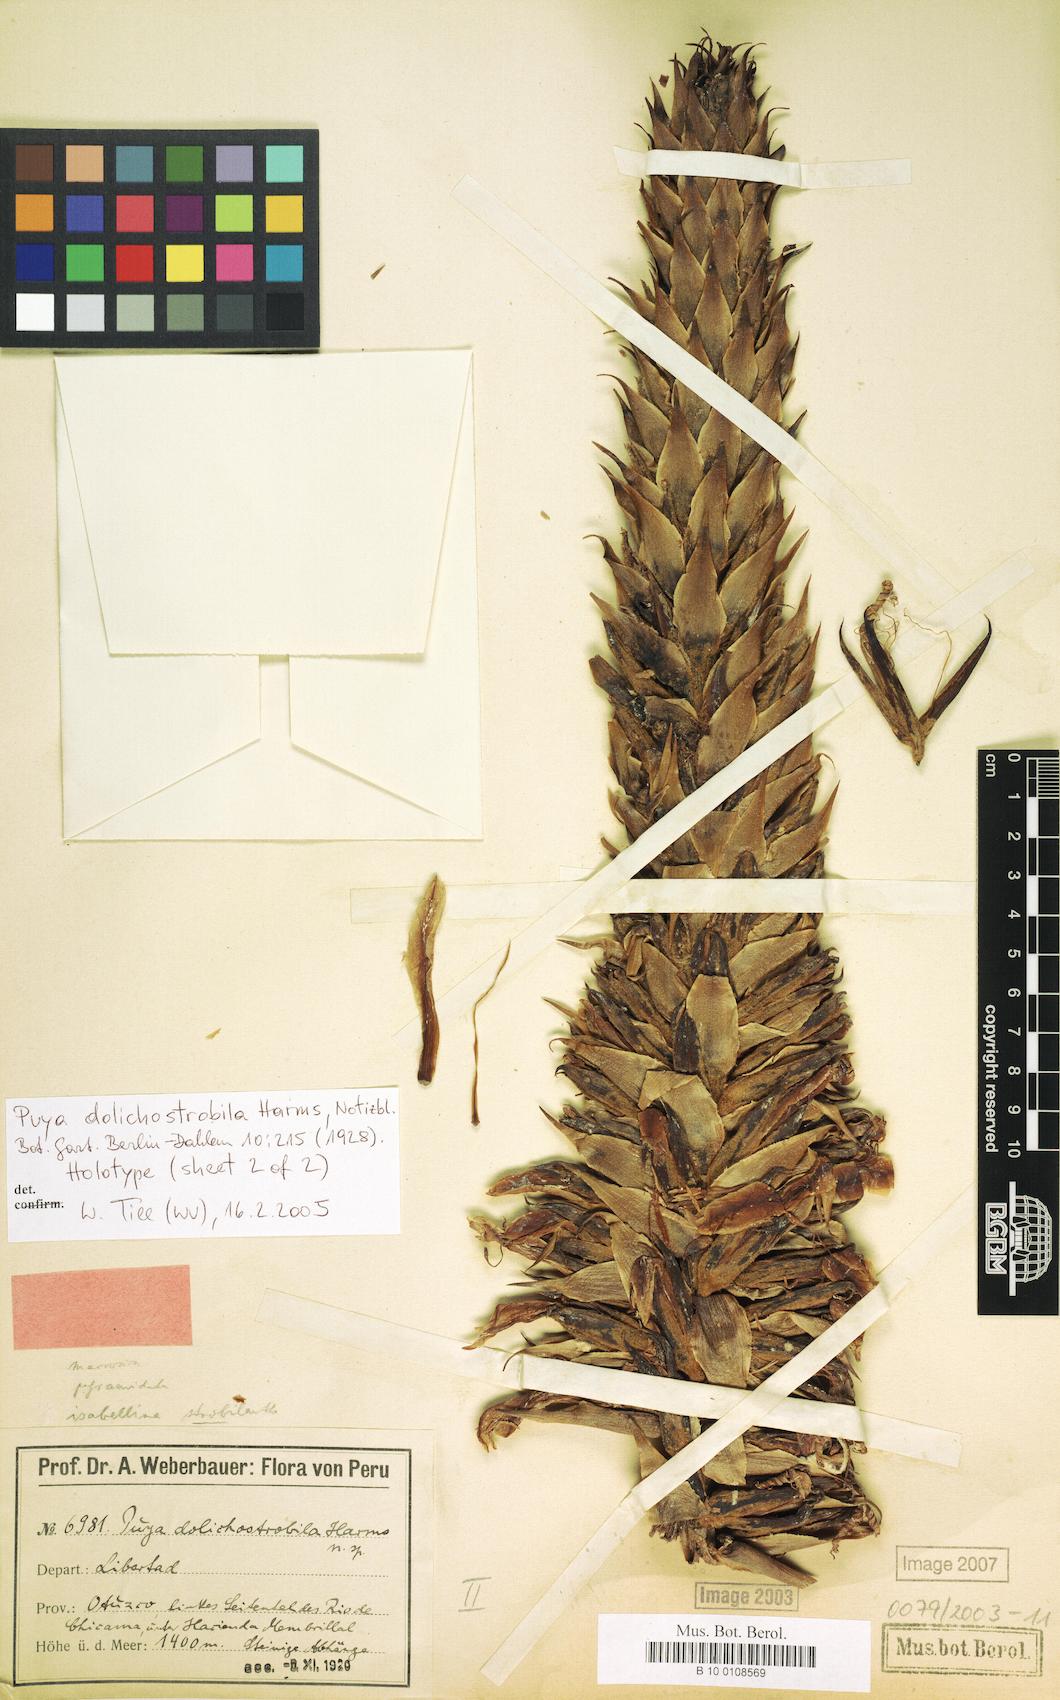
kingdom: Plantae
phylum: Tracheophyta
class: Liliopsida
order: Poales
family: Bromeliaceae
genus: Puya
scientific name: Puya dolichostrobila
